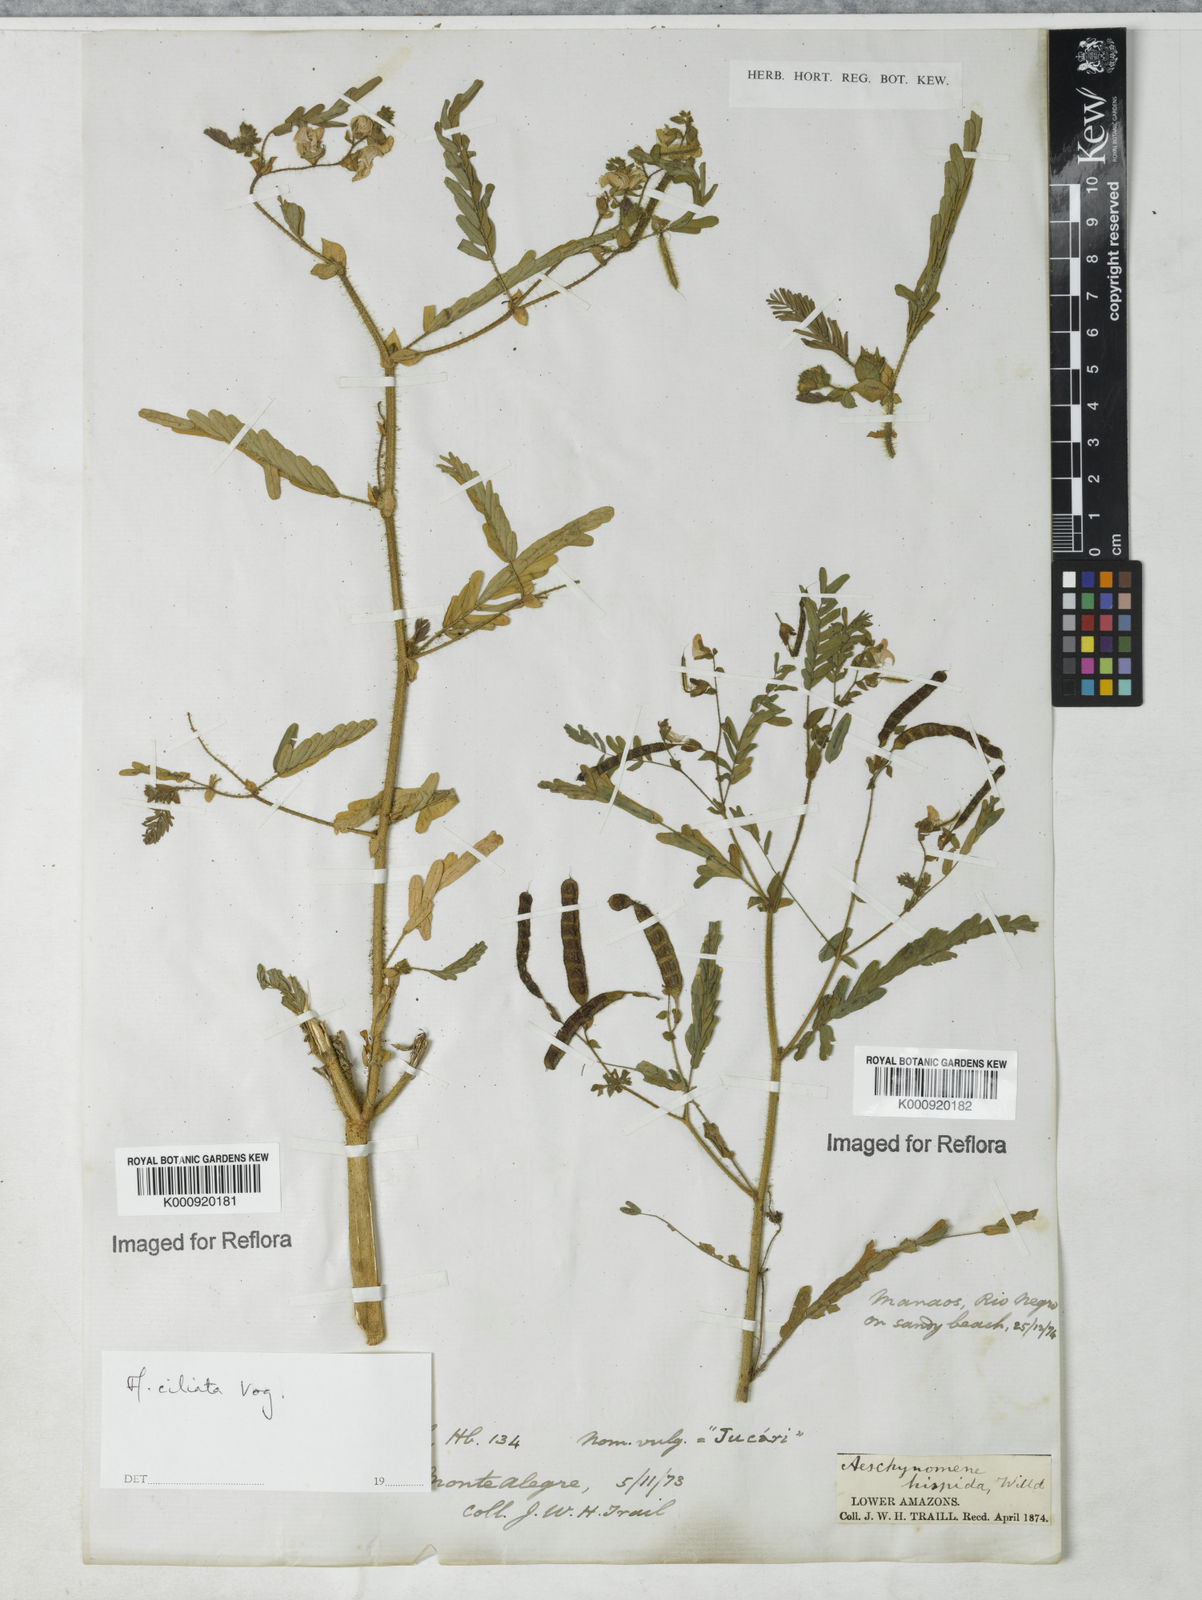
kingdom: Plantae
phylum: Tracheophyta
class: Magnoliopsida
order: Fabales
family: Fabaceae
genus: Aeschynomene
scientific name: Aeschynomene ciliata
